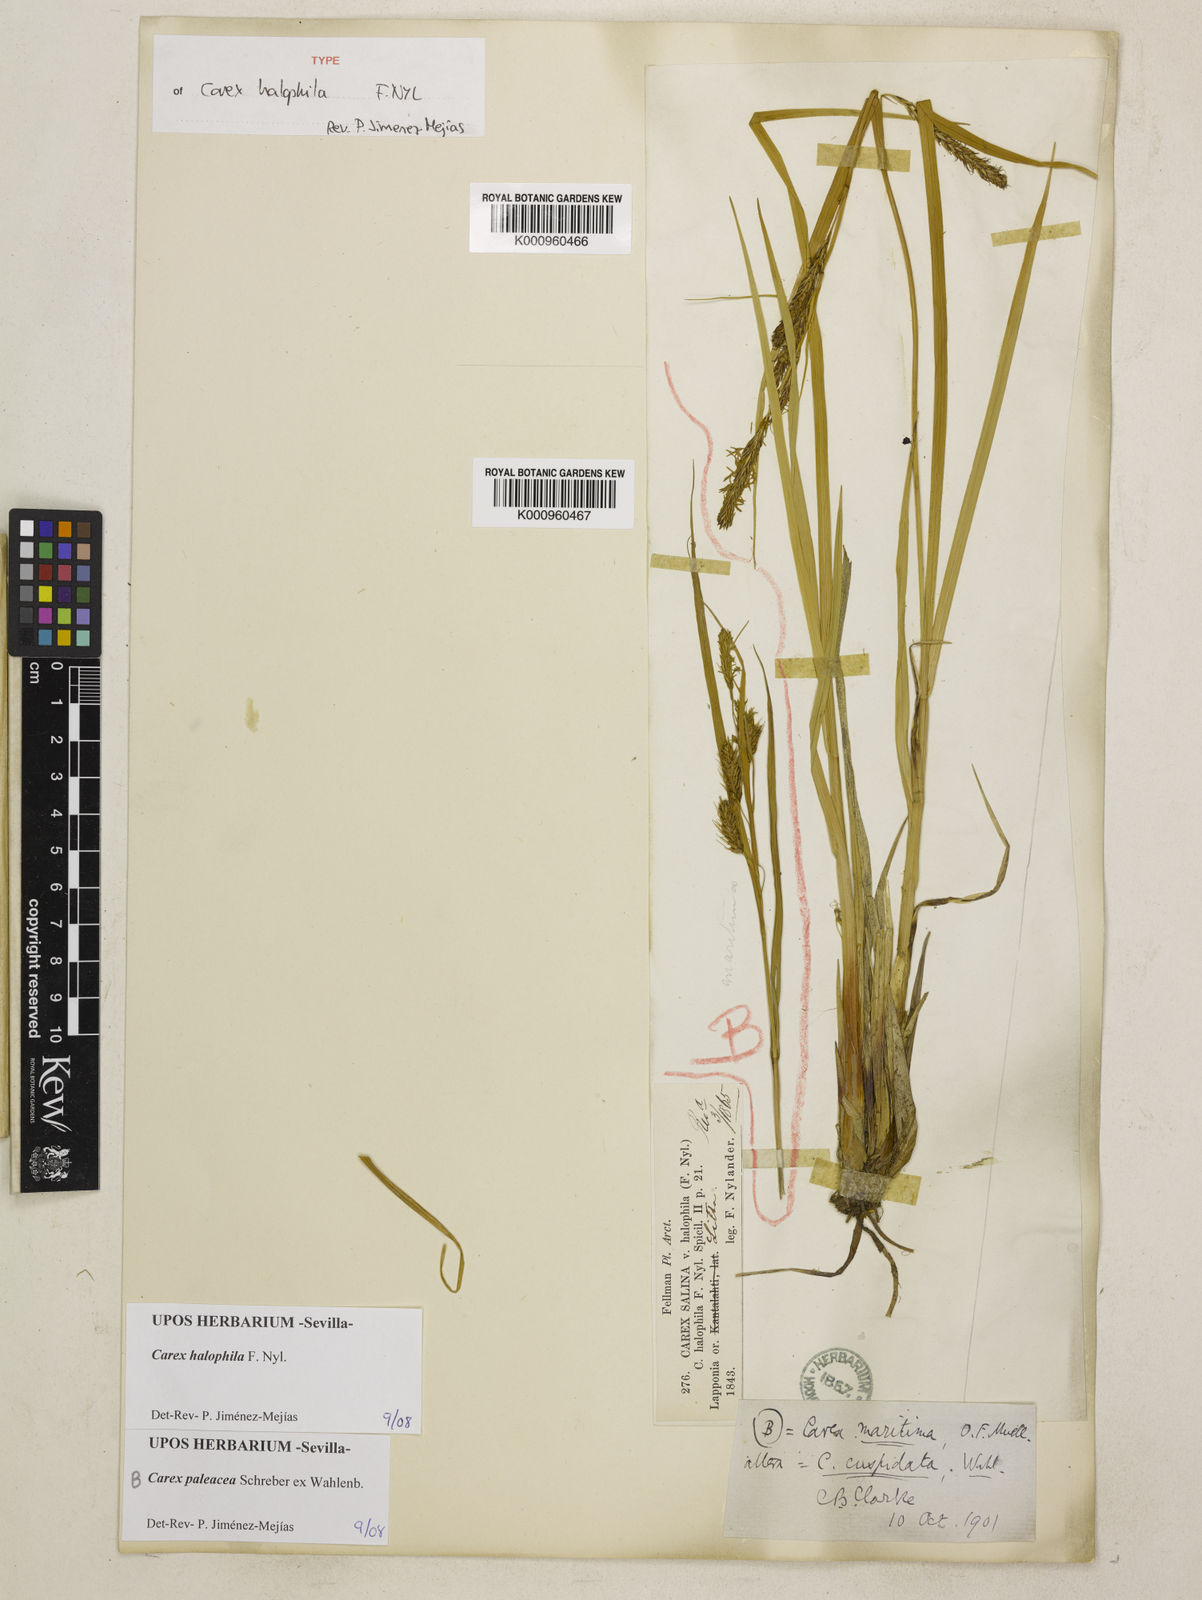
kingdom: Plantae
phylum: Tracheophyta
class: Liliopsida
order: Poales
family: Cyperaceae
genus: Carex
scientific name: Carex aquatilis
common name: Water sedge
